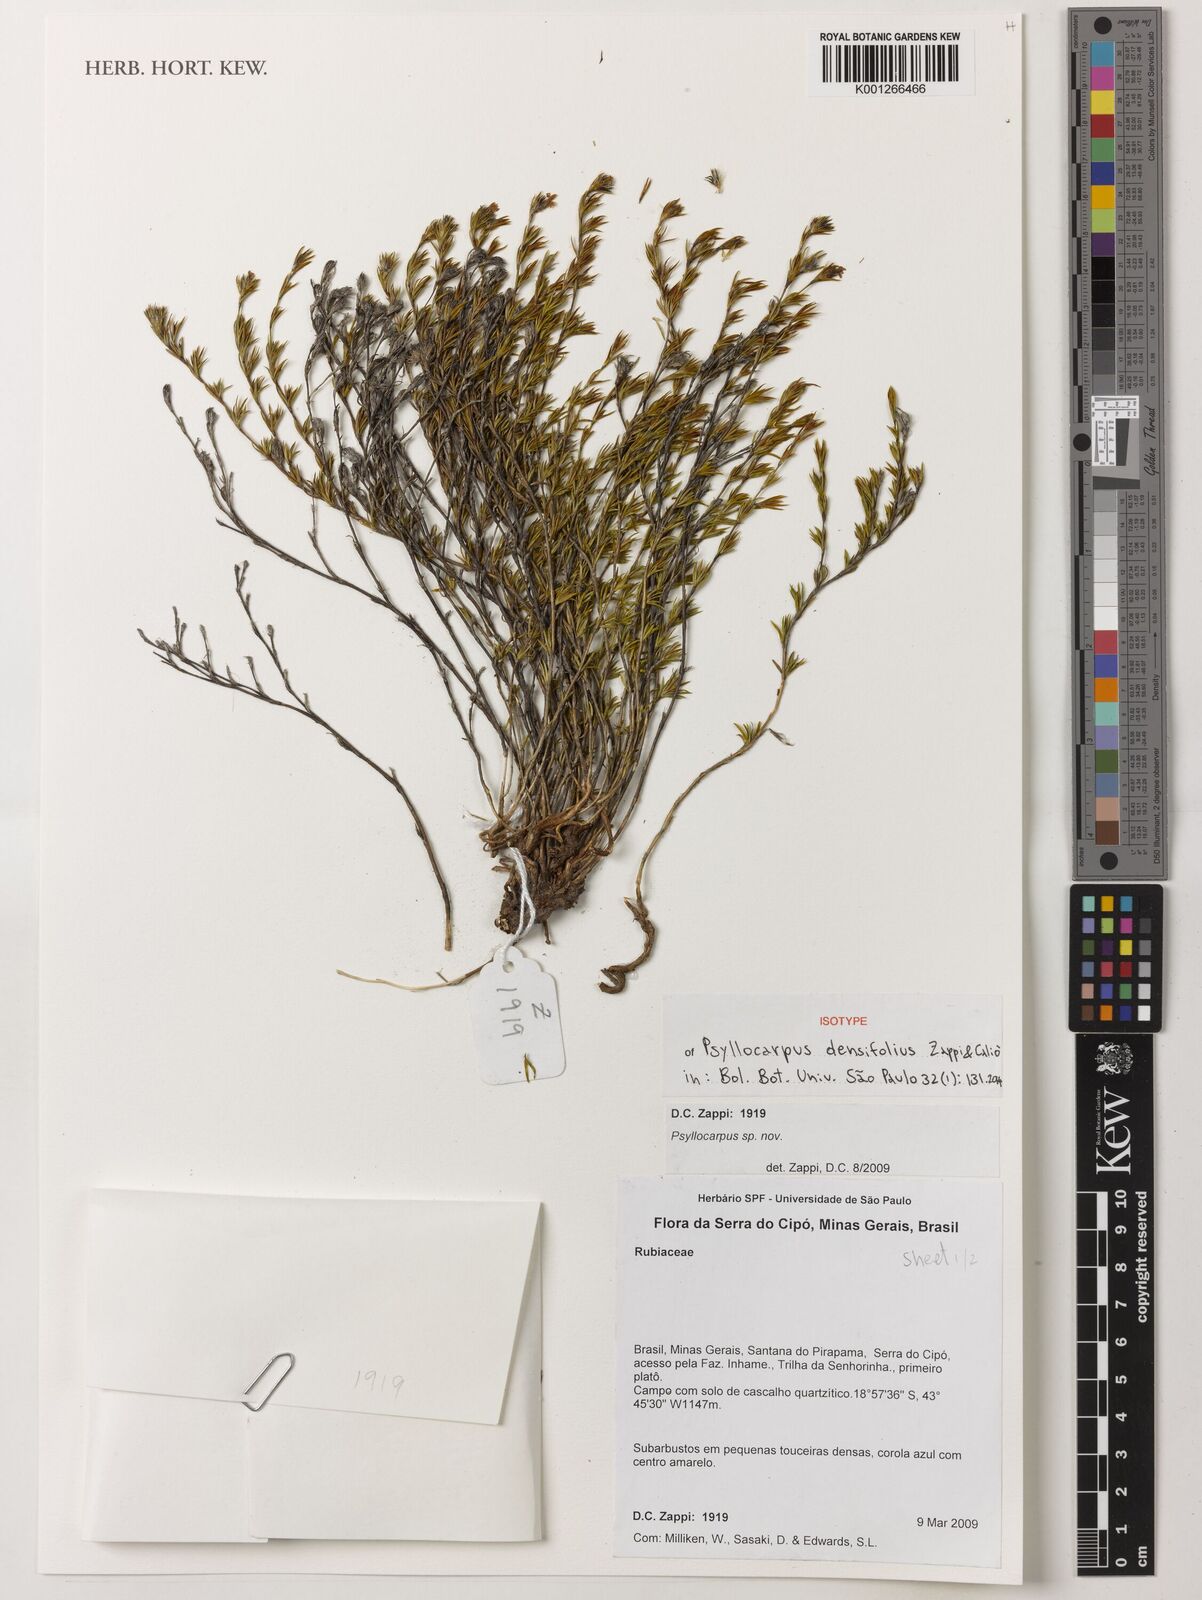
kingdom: Plantae
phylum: Tracheophyta
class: Magnoliopsida
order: Gentianales
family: Rubiaceae
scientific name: Rubiaceae
